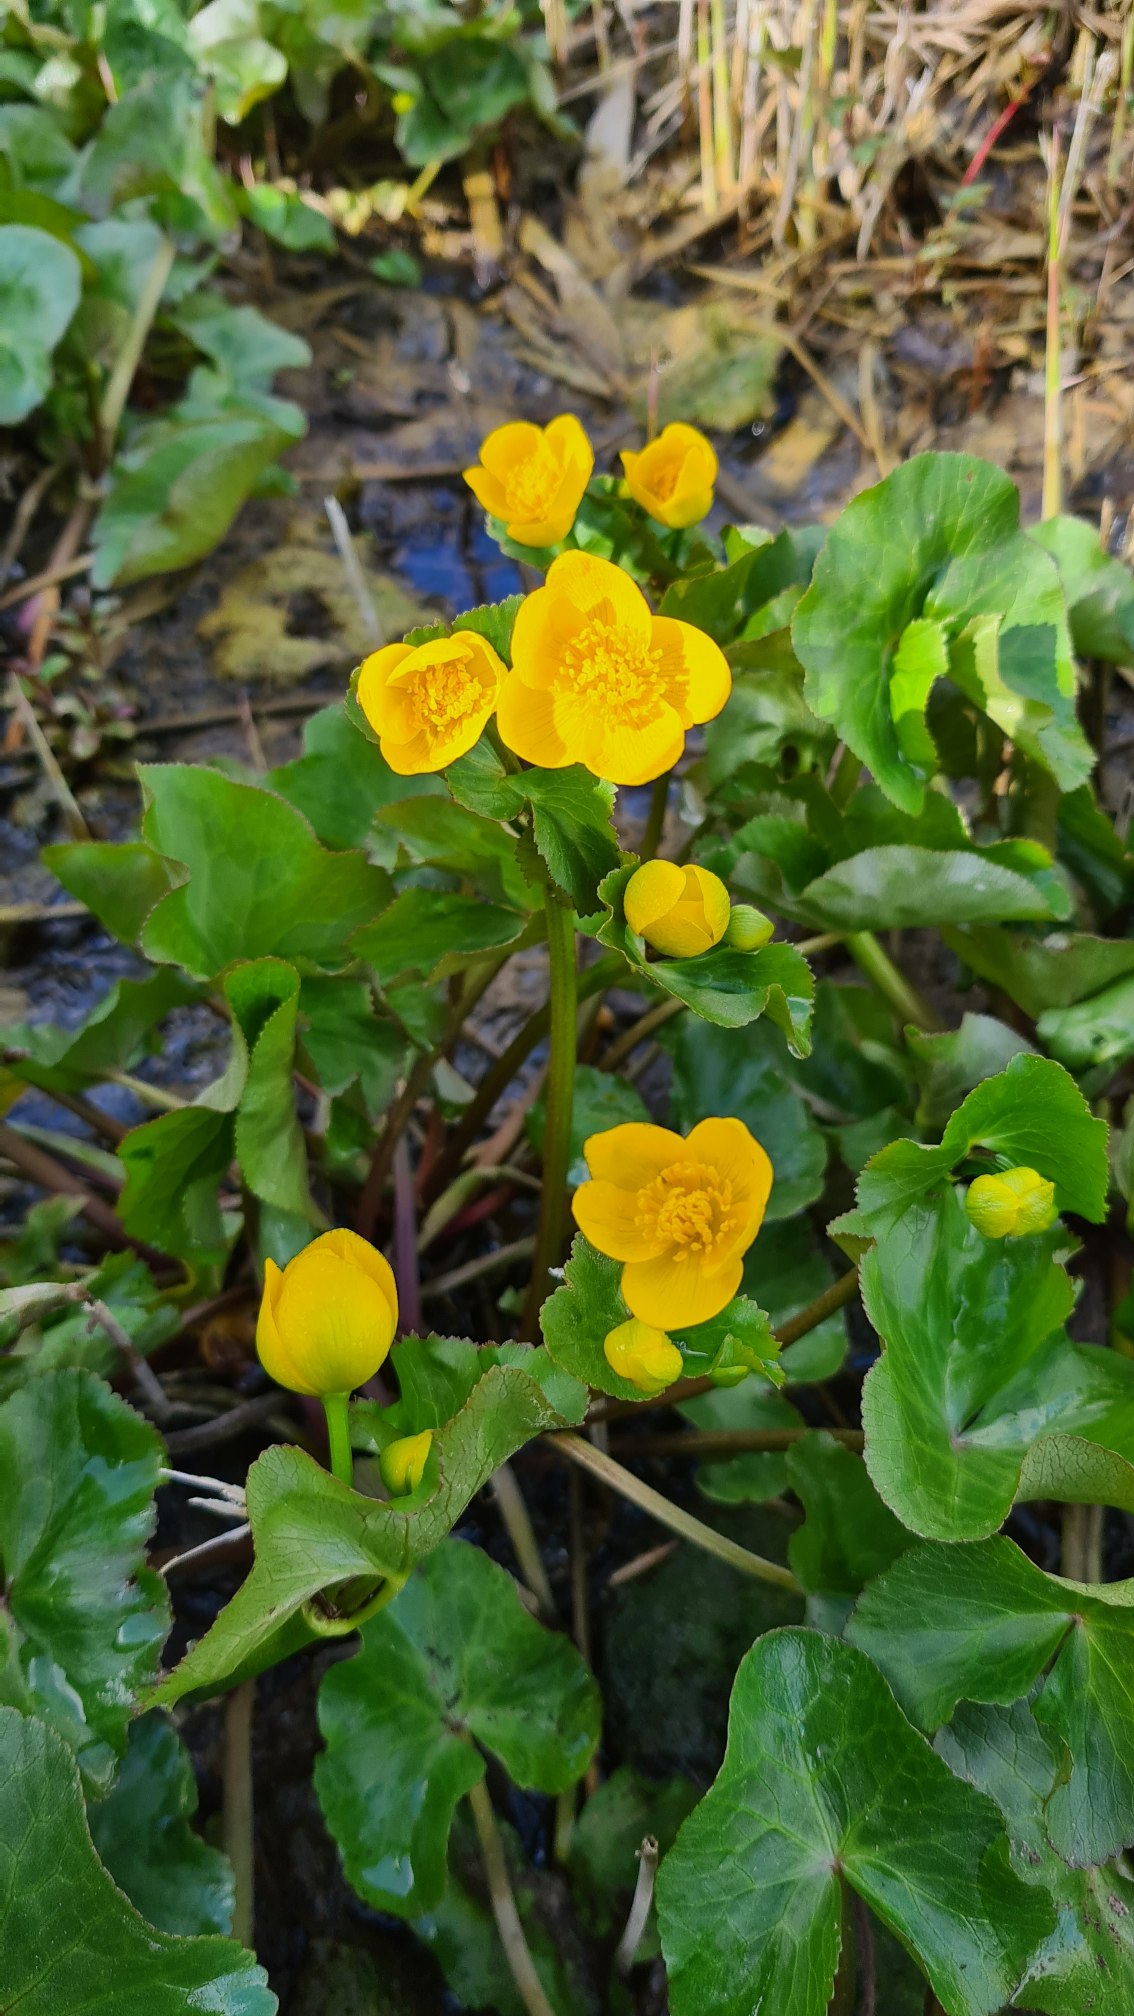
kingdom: Plantae
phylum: Tracheophyta
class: Magnoliopsida
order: Ranunculales
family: Ranunculaceae
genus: Caltha
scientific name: Caltha palustris
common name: Eng-kabbeleje
